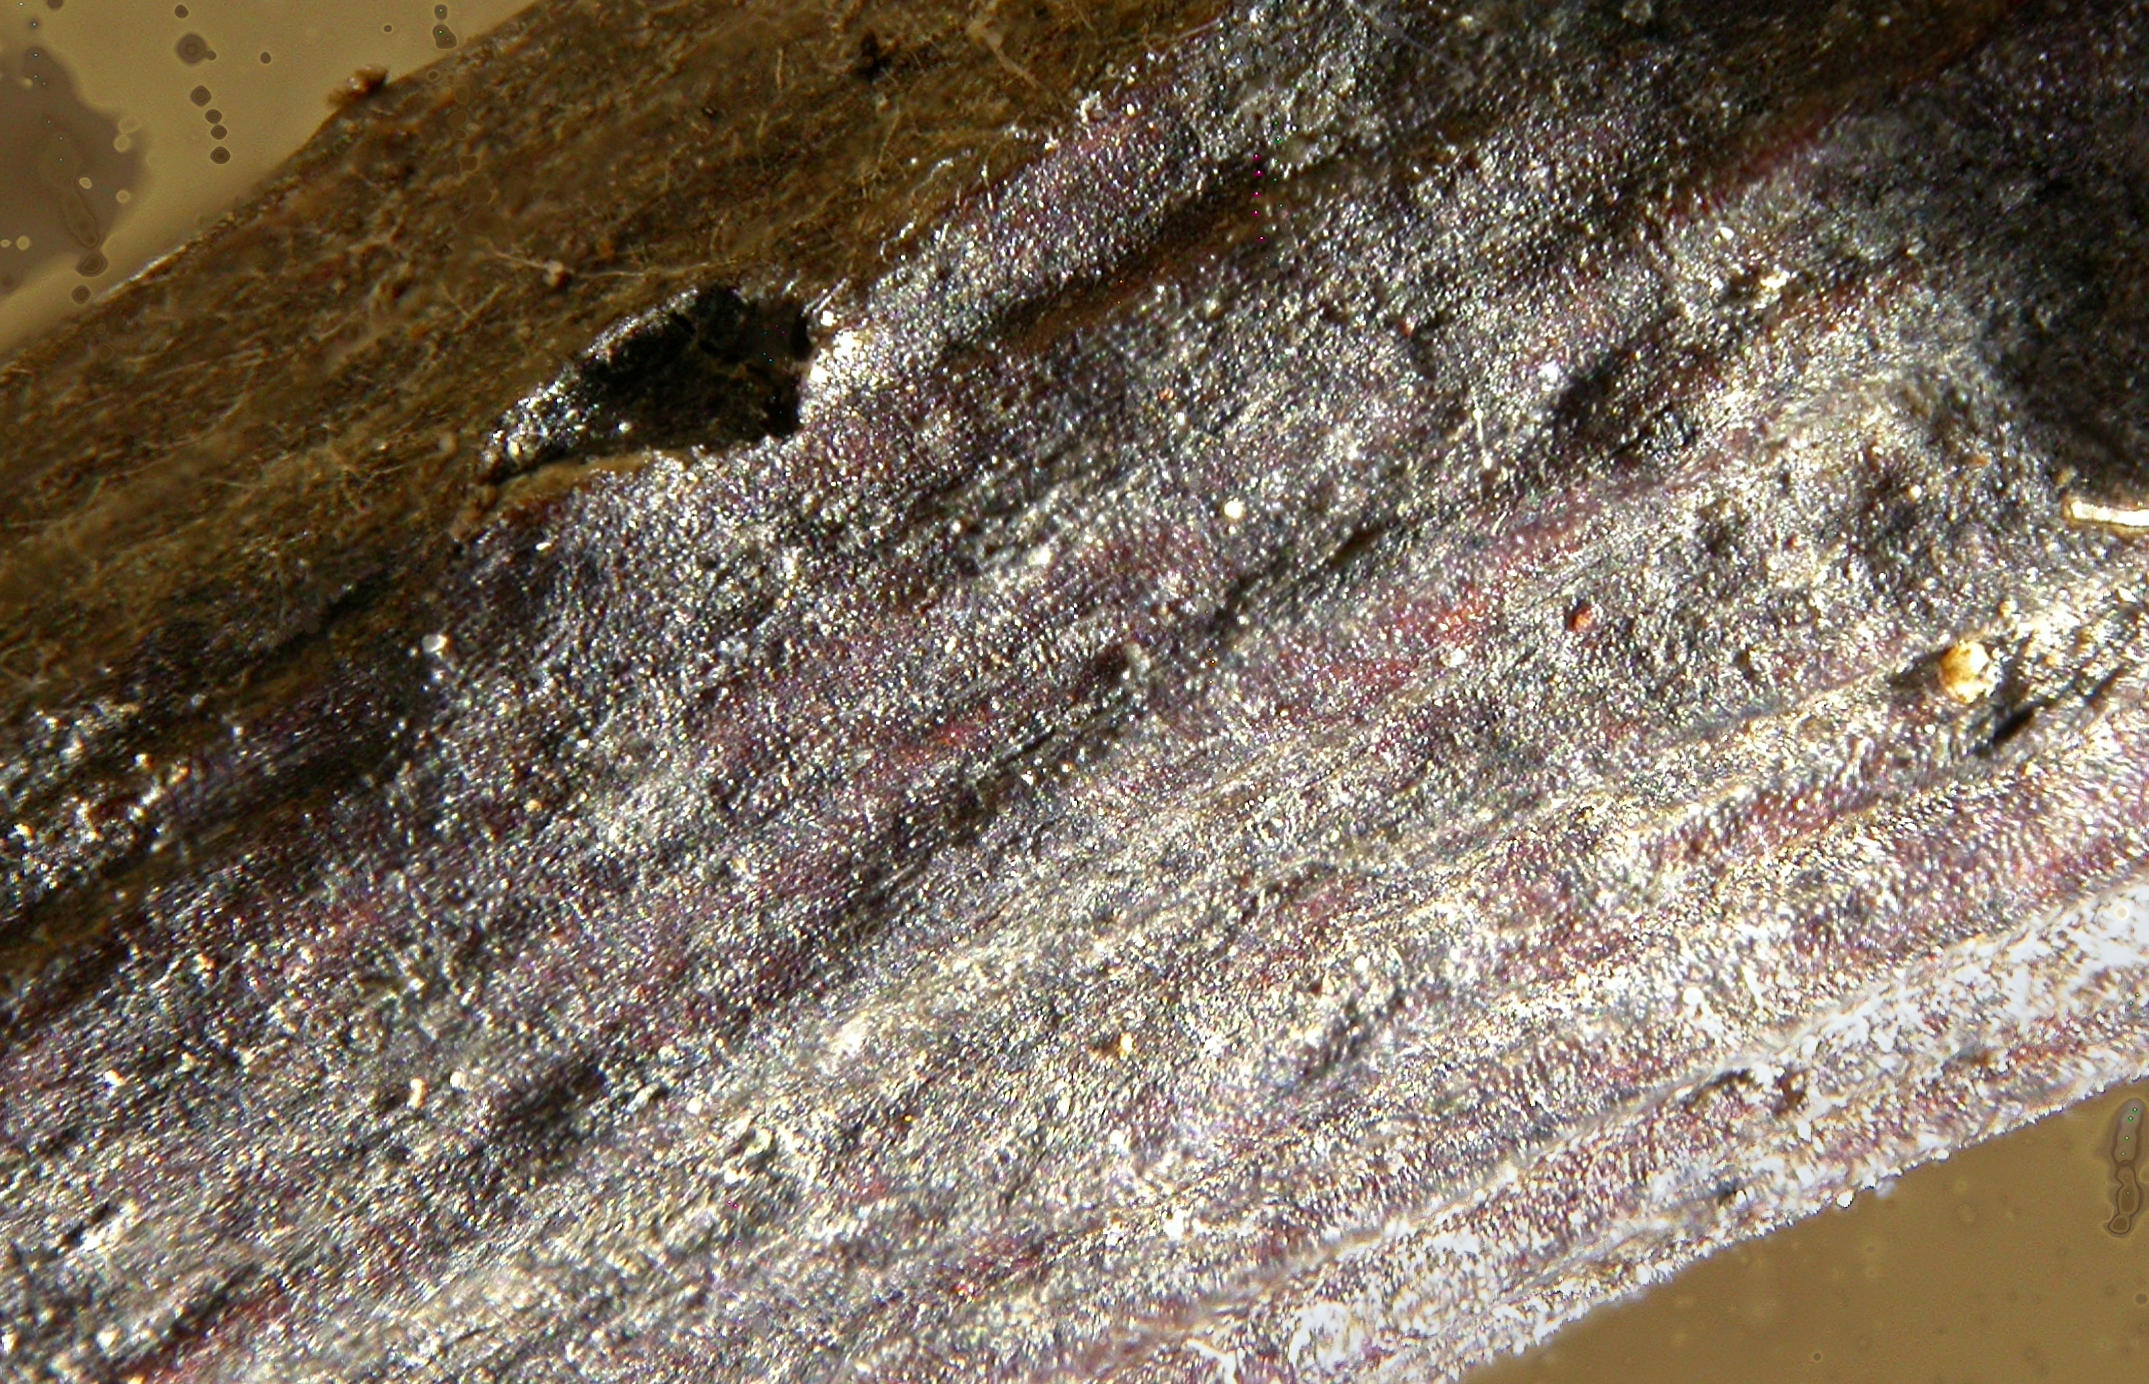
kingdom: Fungi
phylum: Ascomycota
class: Sordariomycetes
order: Diaporthales
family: Diaporthaceae
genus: Diaporthe
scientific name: Diaporthe feltgenii
